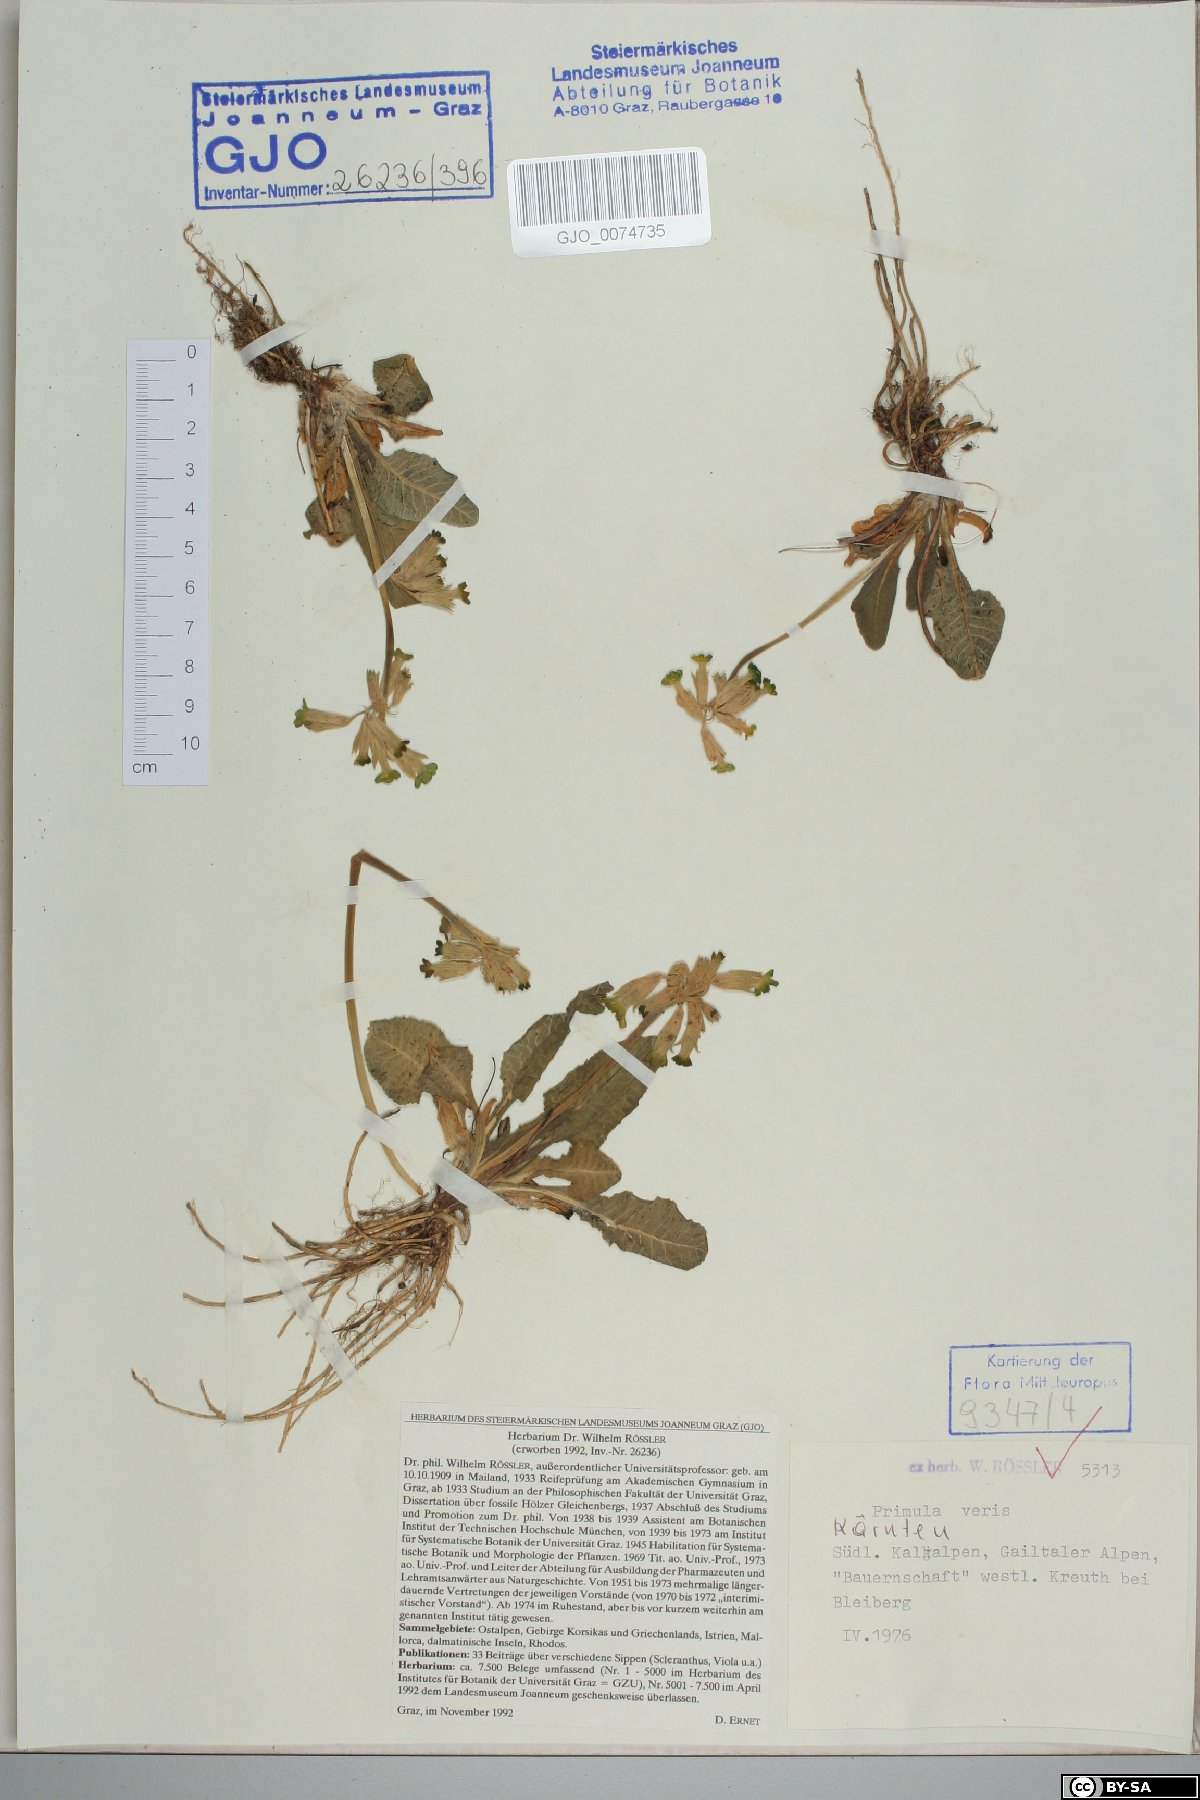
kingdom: Plantae
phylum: Tracheophyta
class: Magnoliopsida
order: Ericales
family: Primulaceae
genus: Primula
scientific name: Primula veris
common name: Cowslip
